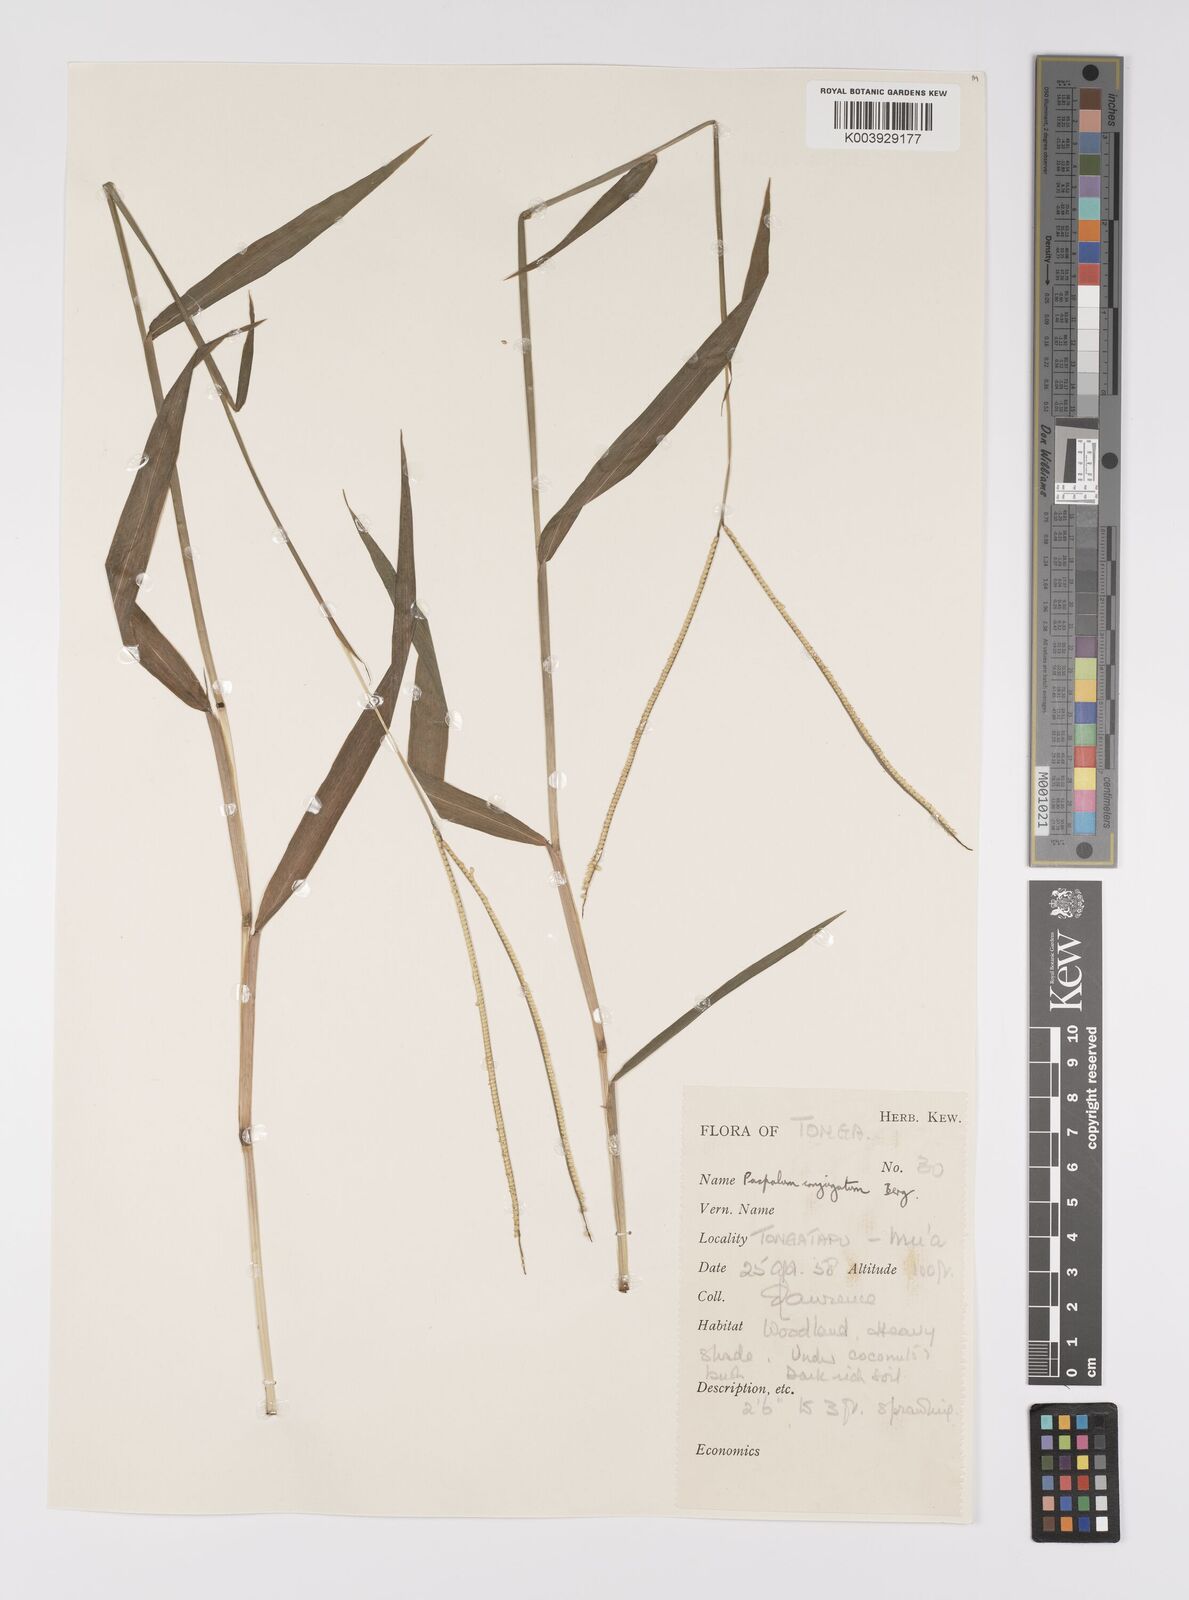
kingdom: Plantae
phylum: Tracheophyta
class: Liliopsida
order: Poales
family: Poaceae
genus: Paspalum
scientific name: Paspalum conjugatum
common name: Hilograss
